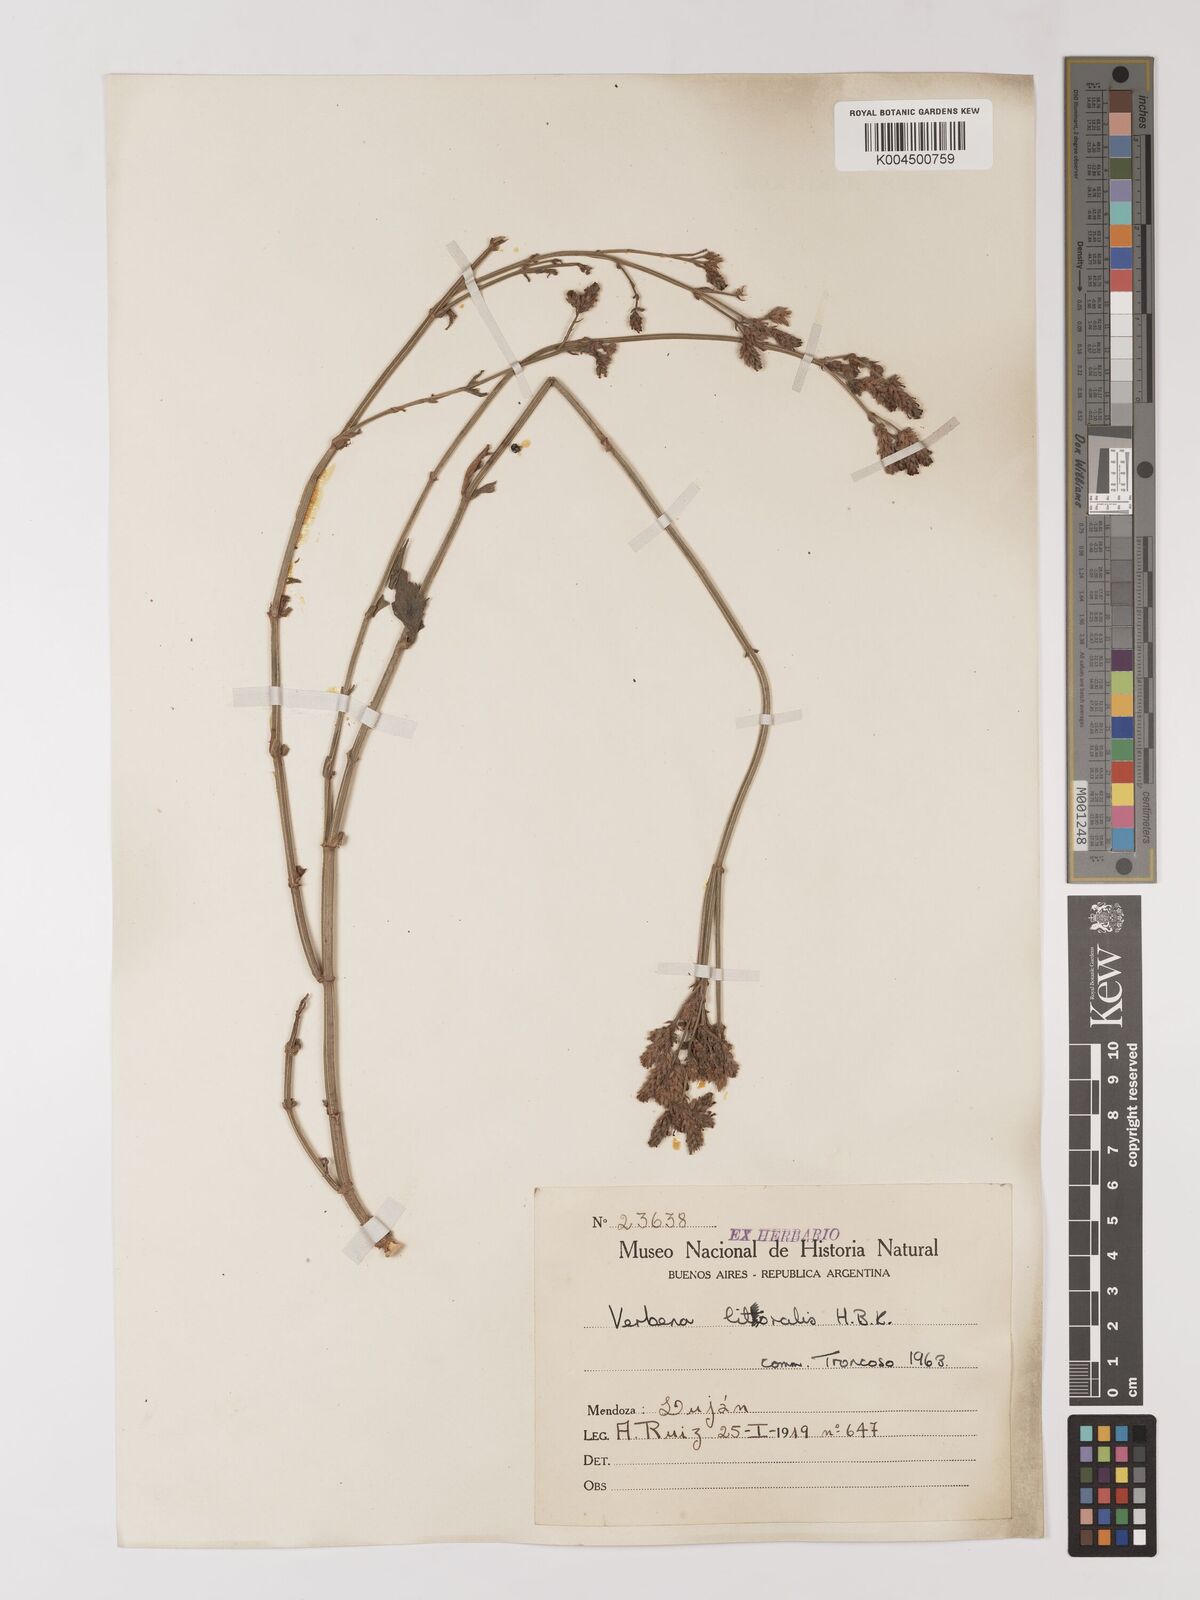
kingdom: Plantae
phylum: Tracheophyta
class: Magnoliopsida
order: Lamiales
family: Verbenaceae
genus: Verbena
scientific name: Verbena litoralis
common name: Seashore vervain
